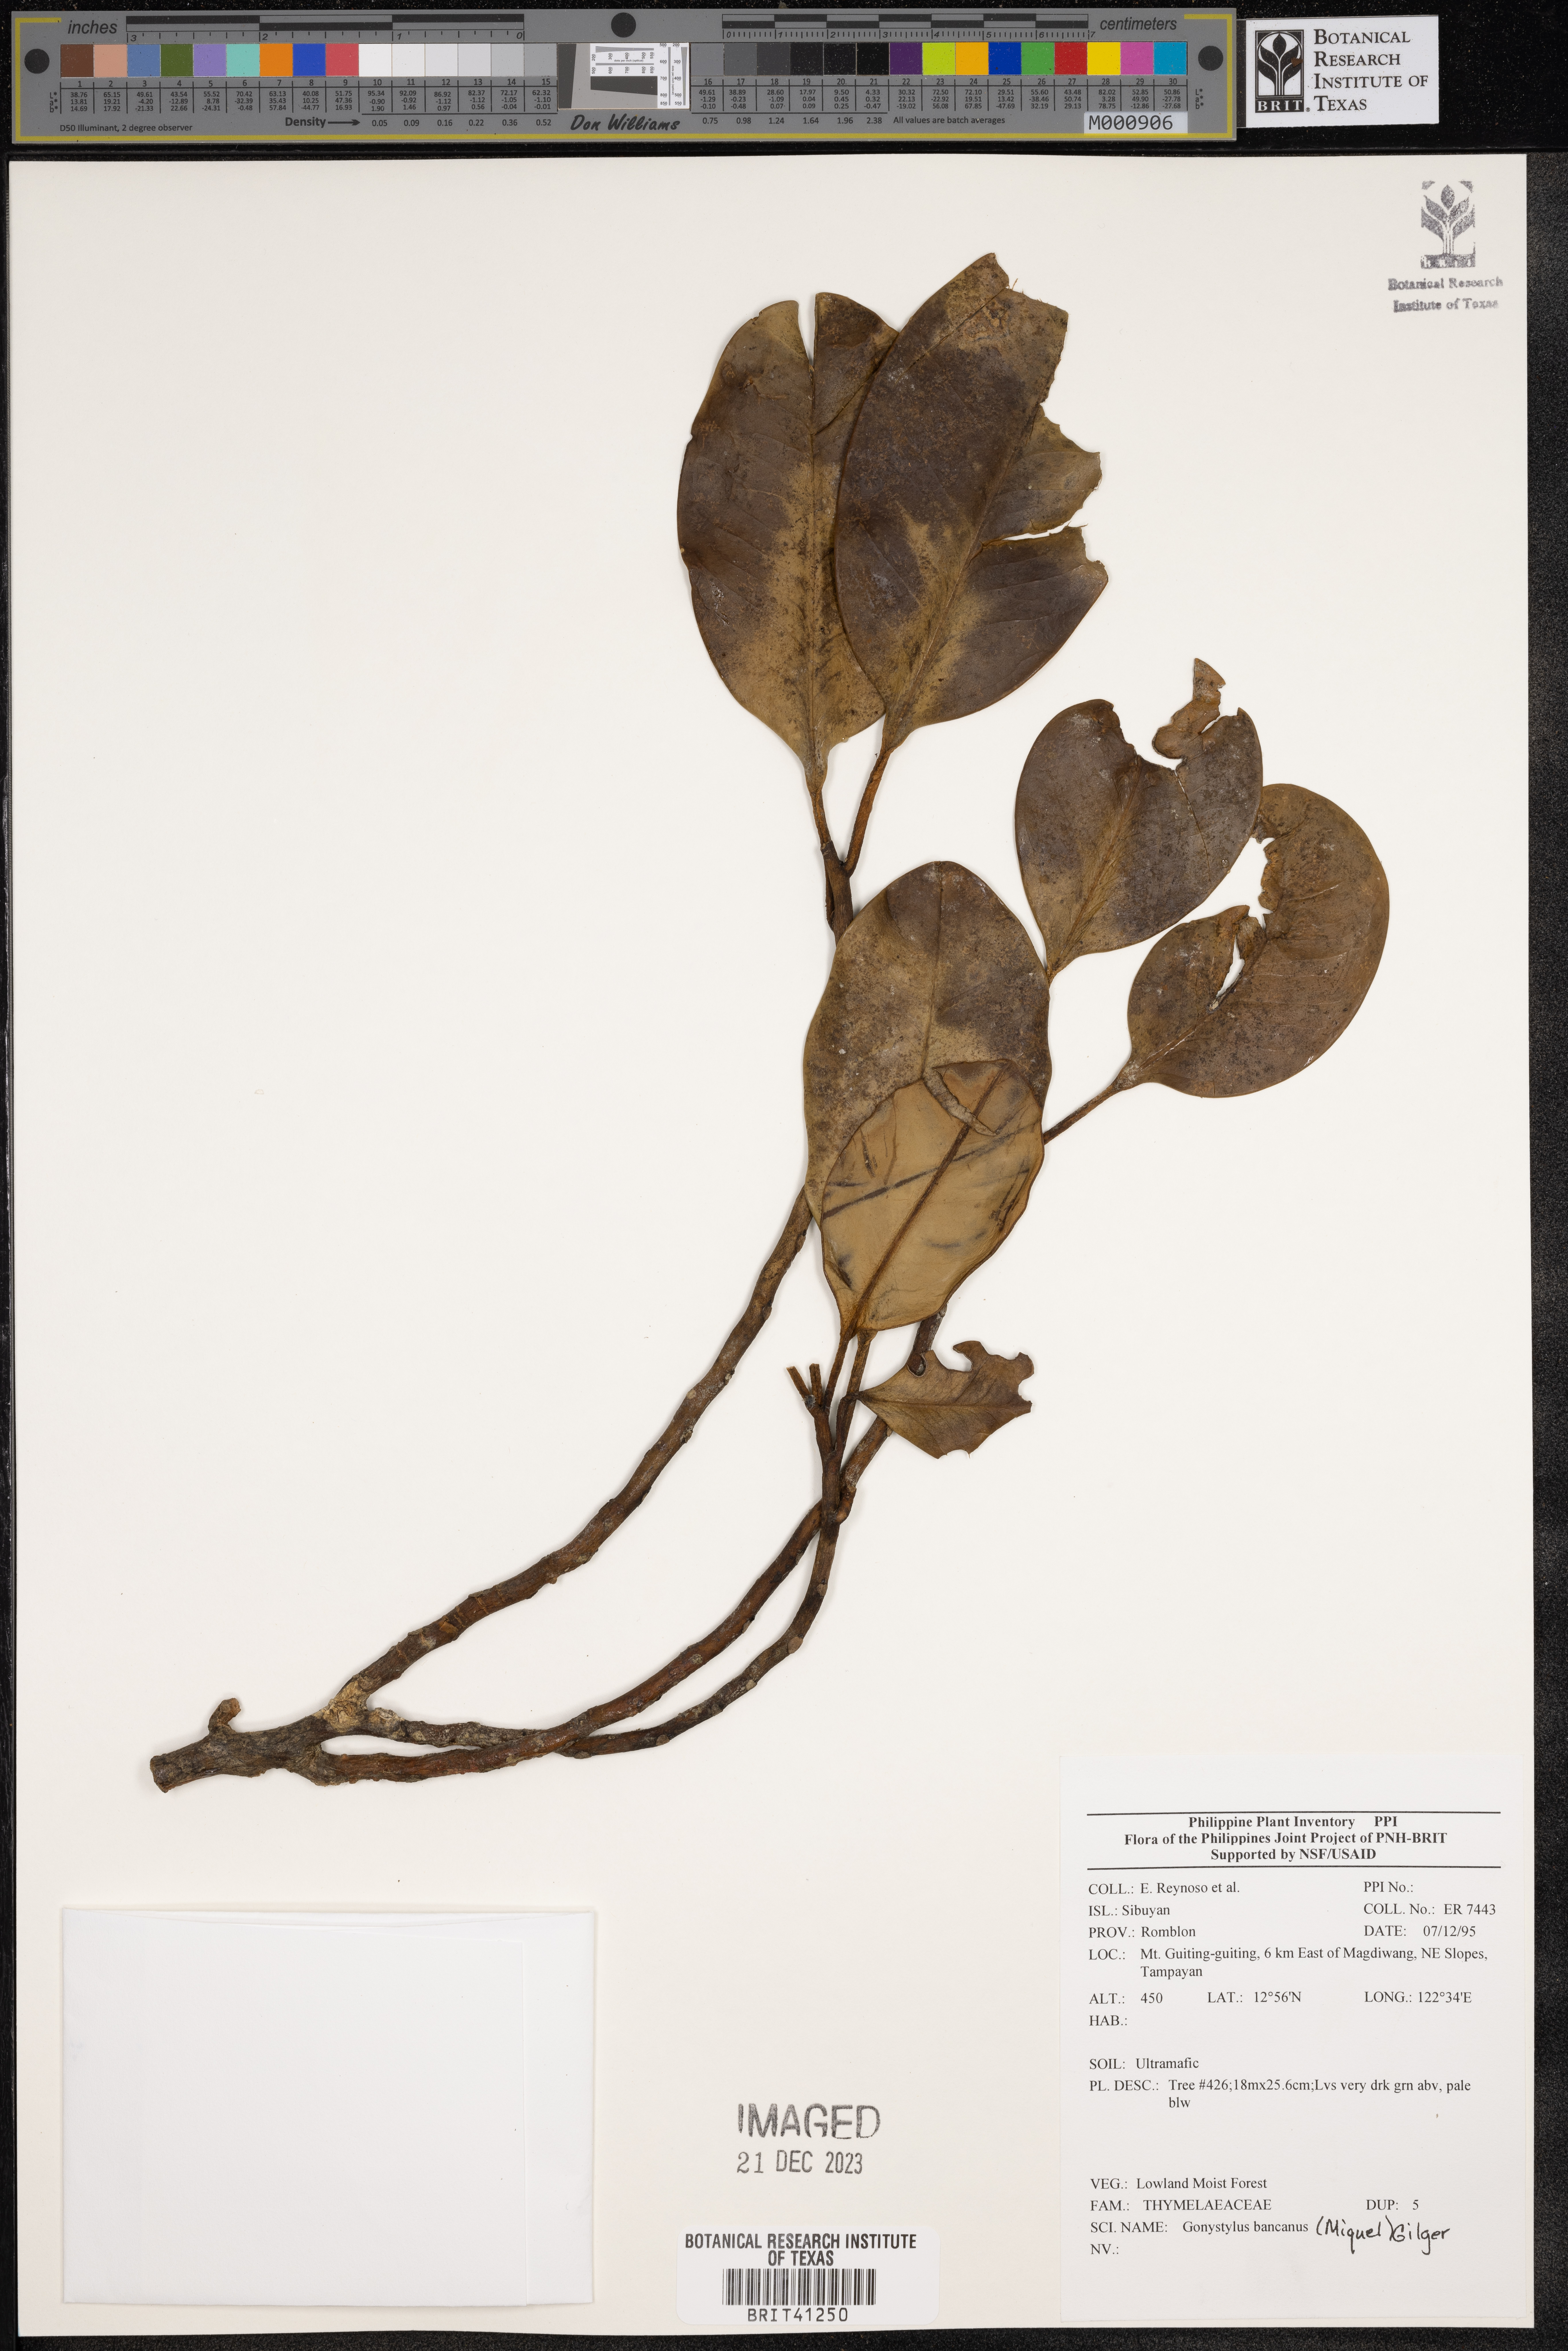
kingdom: Plantae
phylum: Tracheophyta
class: Magnoliopsida
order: Malvales
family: Thymelaeaceae
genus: Gonystylus
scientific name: Gonystylus bancanus
